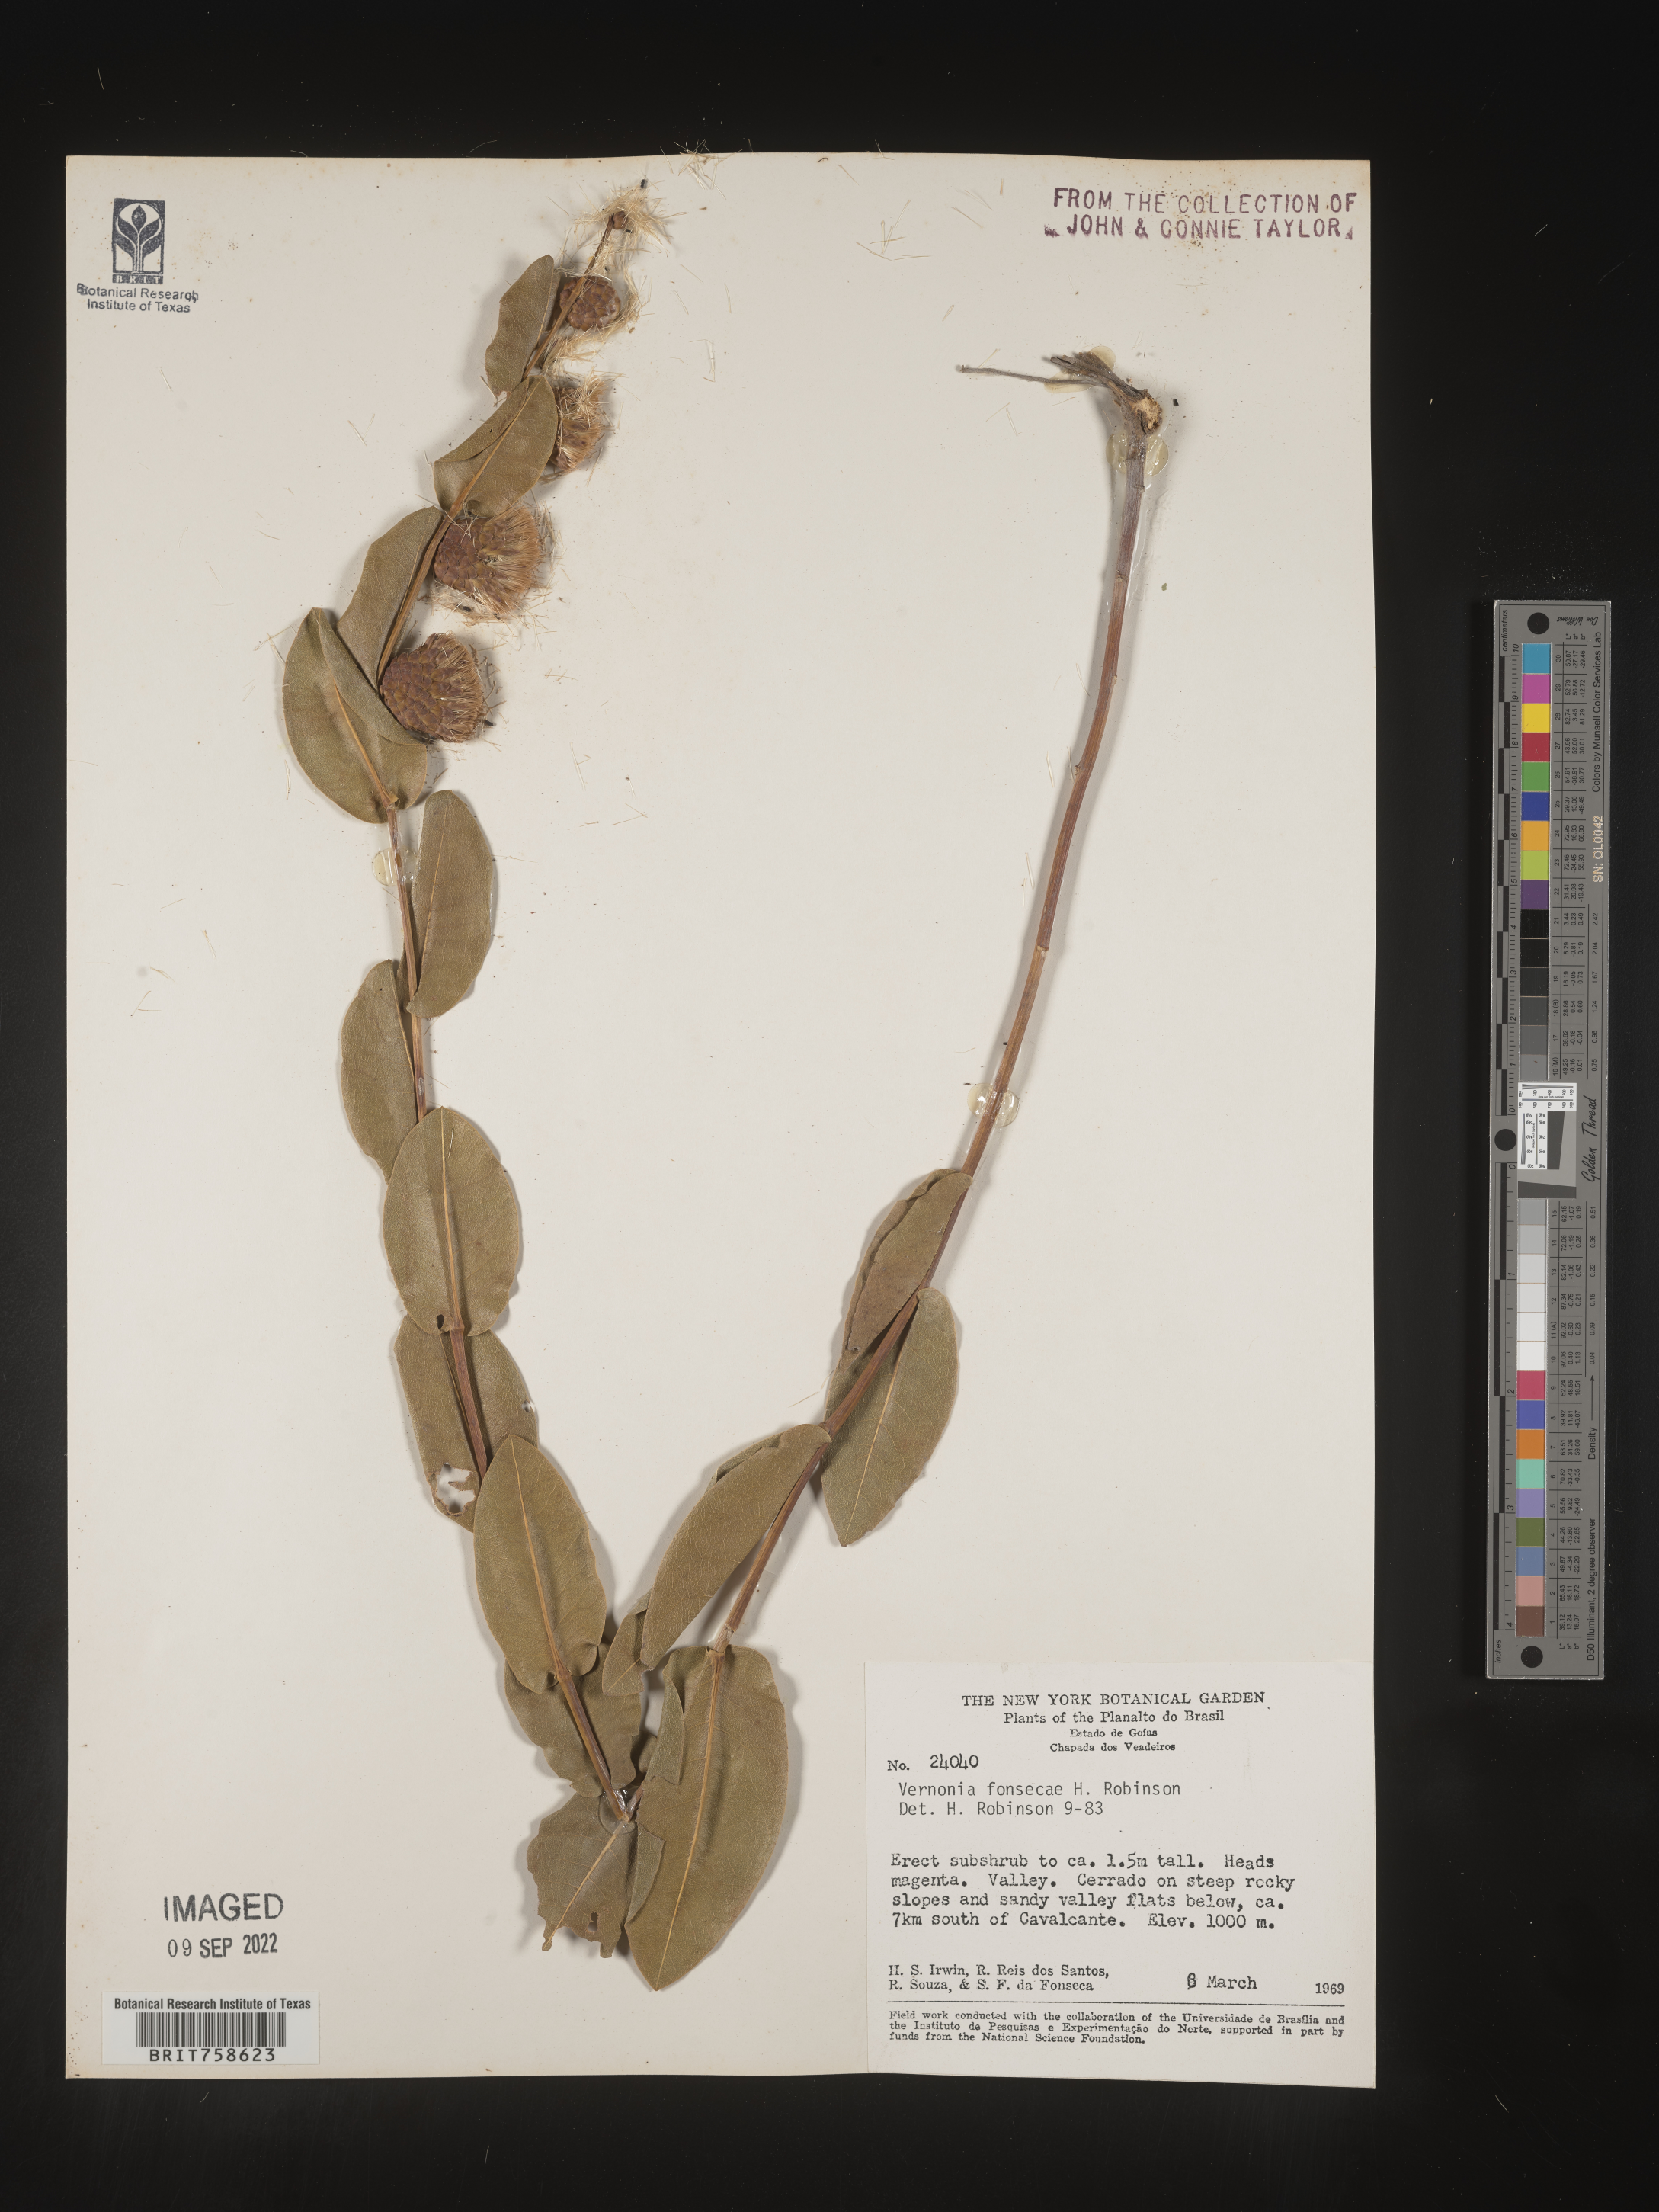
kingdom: Plantae
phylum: Tracheophyta
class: Magnoliopsida
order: Asterales
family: Asteraceae
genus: Vernonia
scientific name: Vernonia
